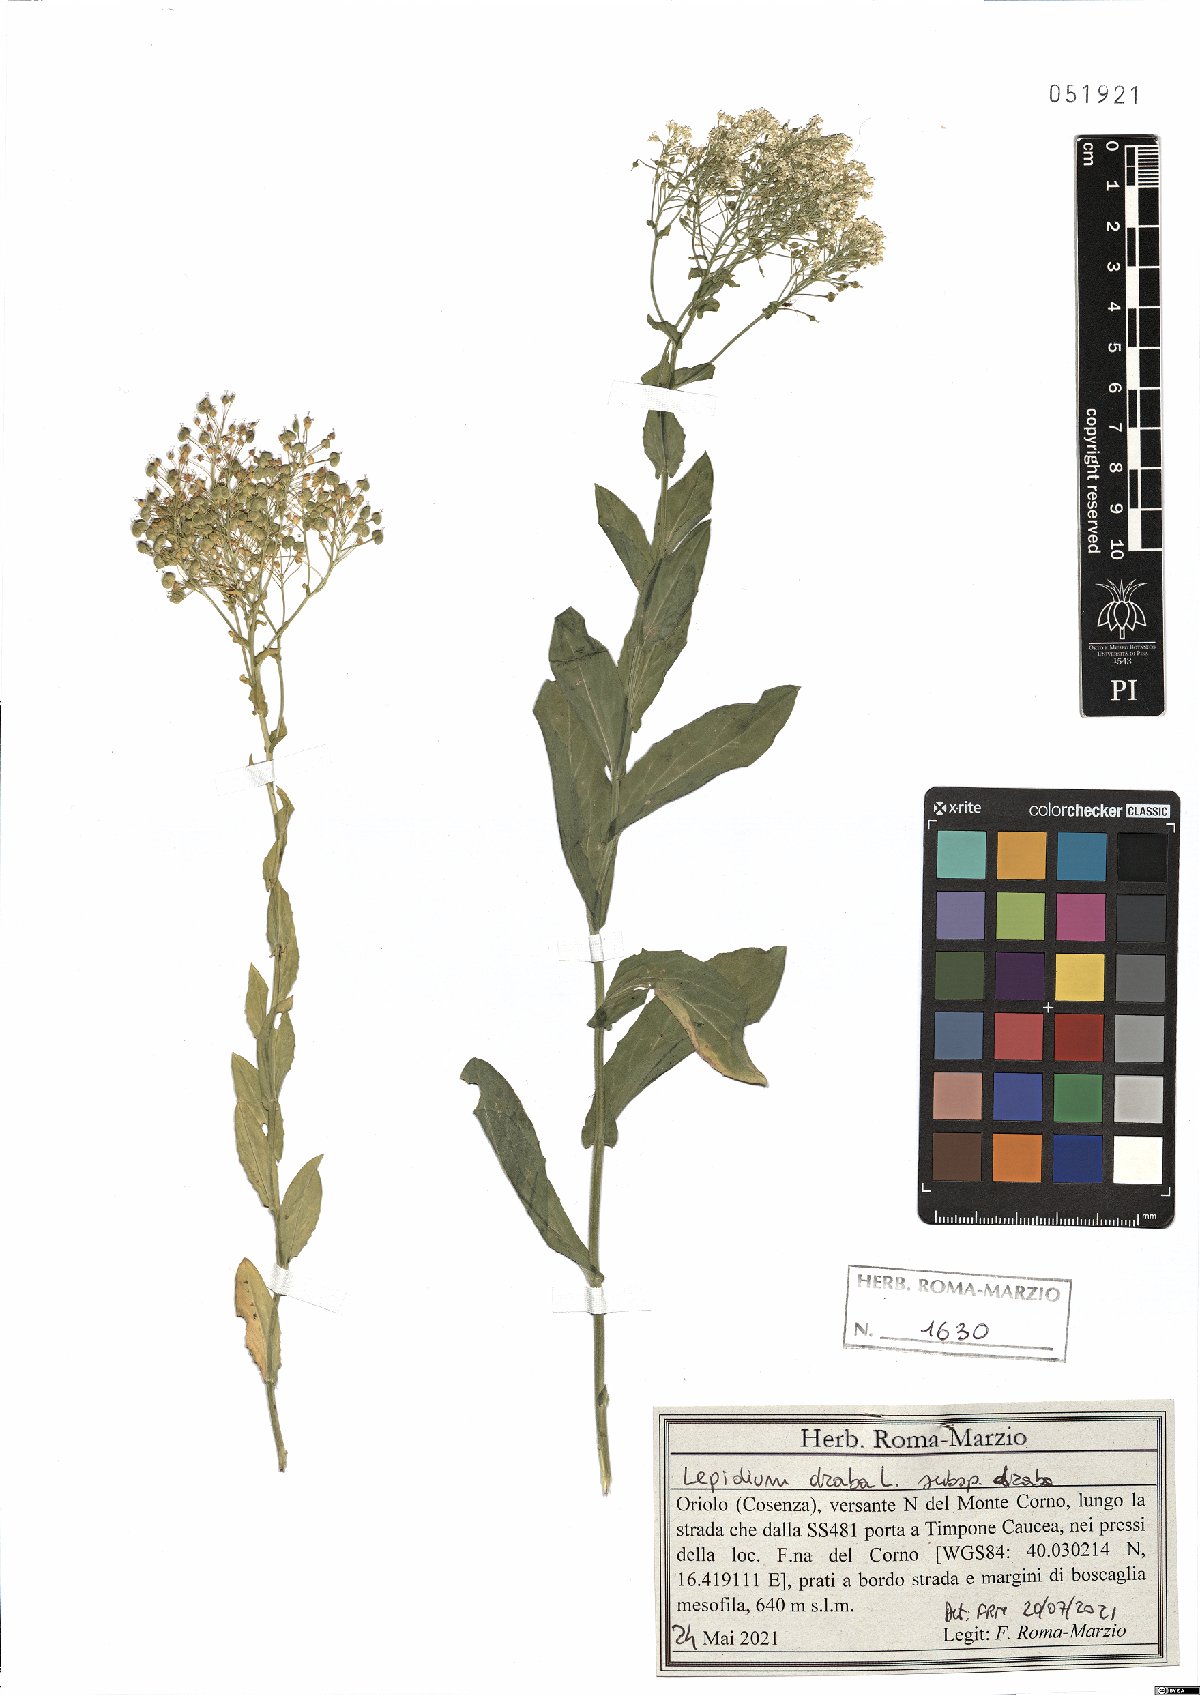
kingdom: Plantae
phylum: Tracheophyta
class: Magnoliopsida
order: Brassicales
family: Brassicaceae
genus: Lepidium
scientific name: Lepidium draba
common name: Hoary cress
